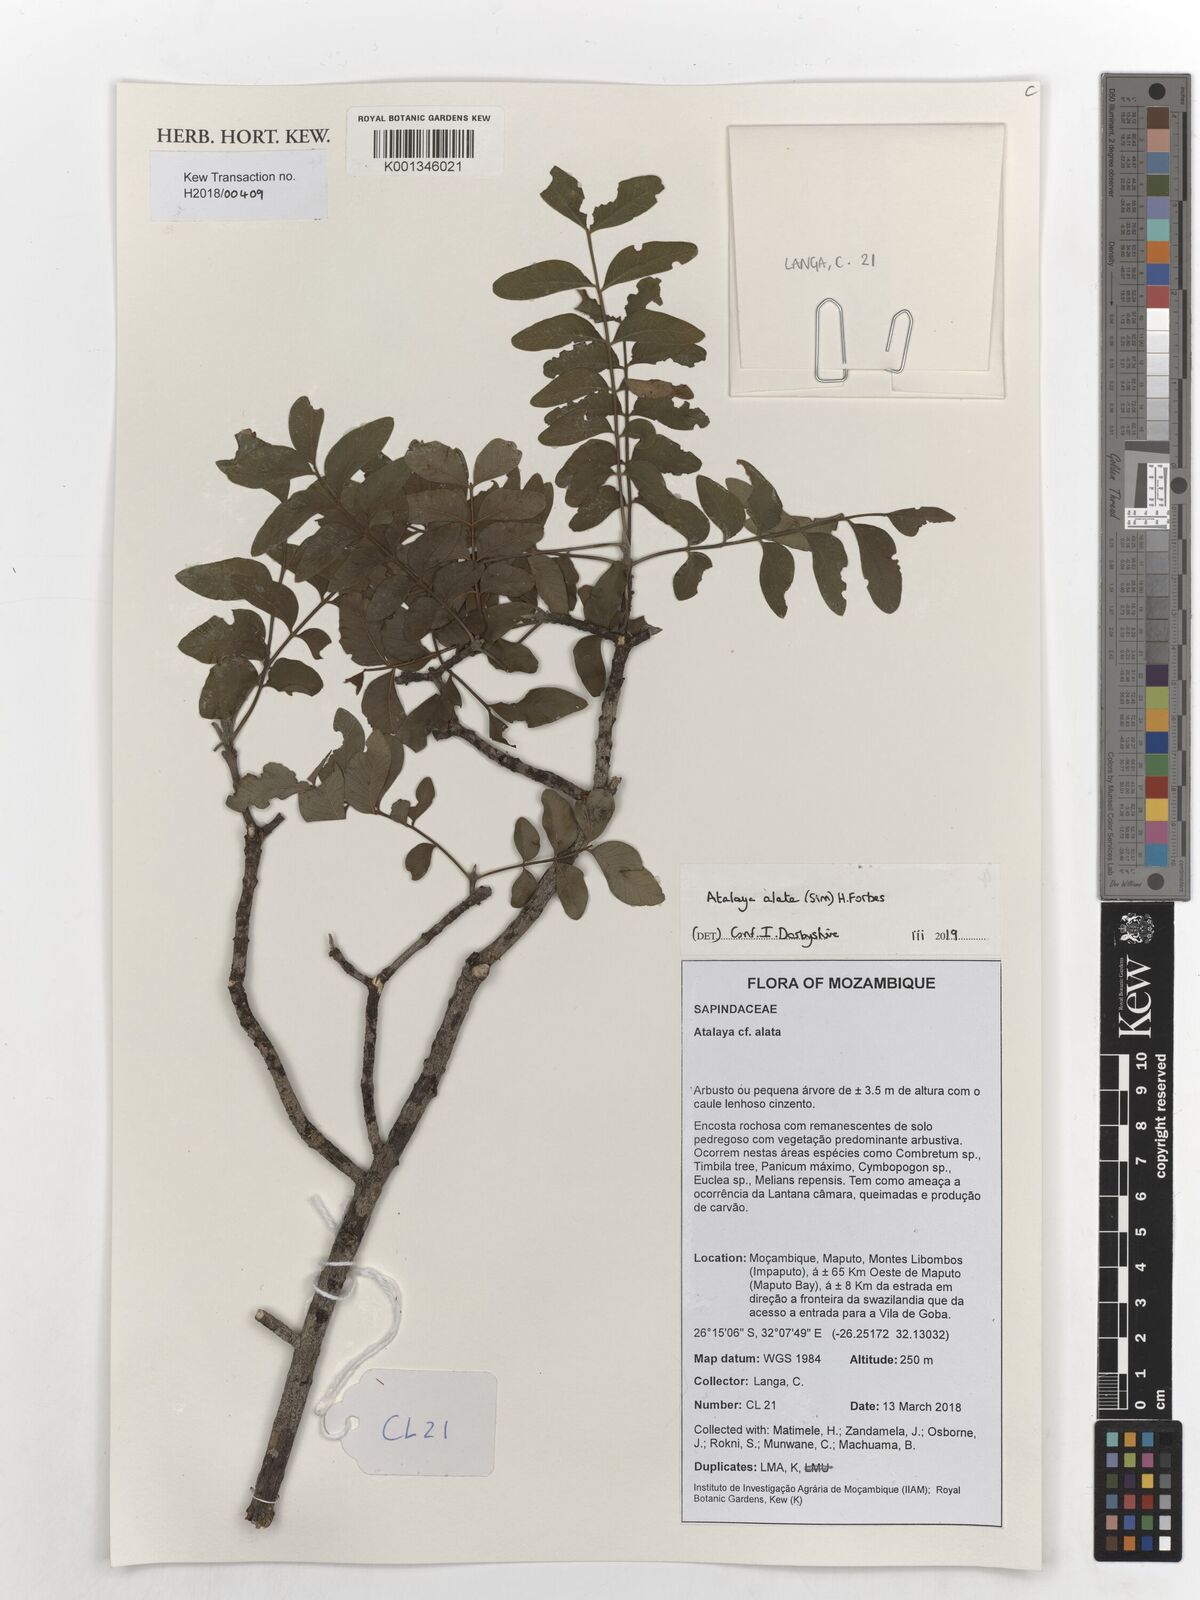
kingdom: Plantae
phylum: Tracheophyta
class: Magnoliopsida
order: Sapindales
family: Sapindaceae
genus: Atalaya
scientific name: Atalaya alata
